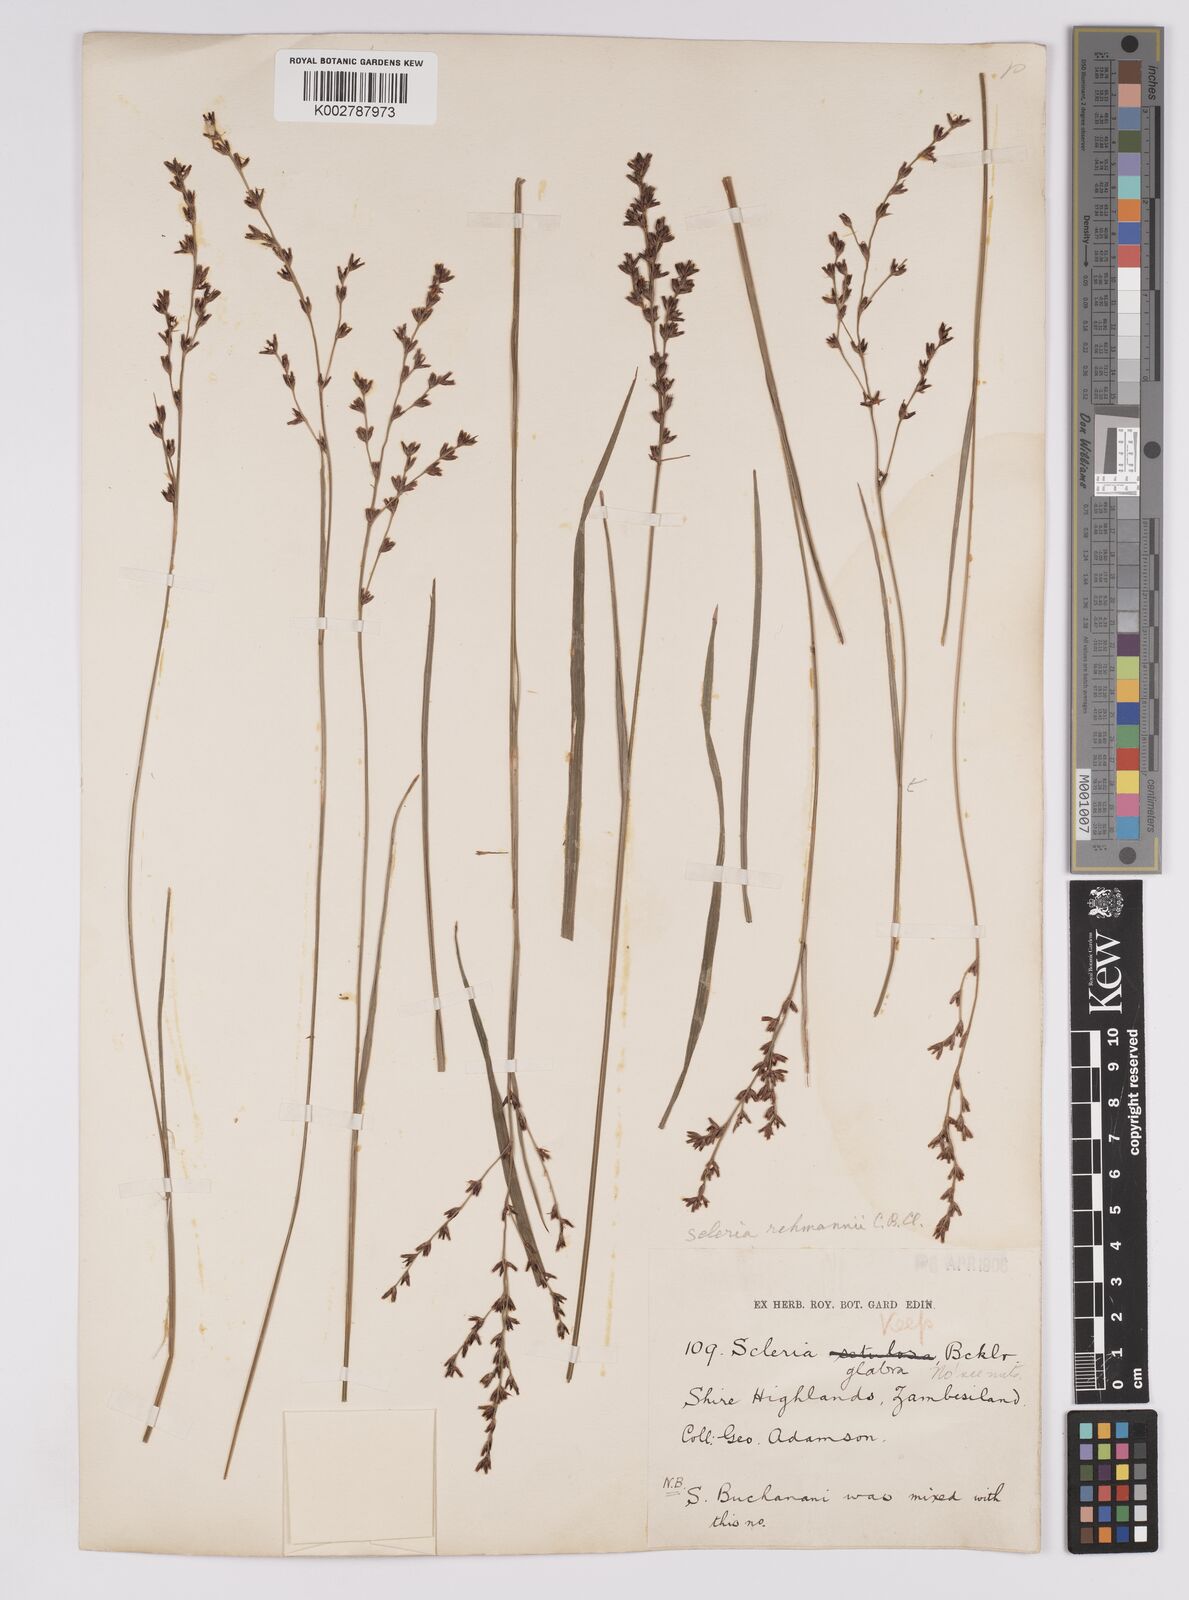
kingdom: Plantae
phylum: Tracheophyta
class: Liliopsida
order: Poales
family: Cyperaceae
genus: Scleria
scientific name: Scleria rehmannii
